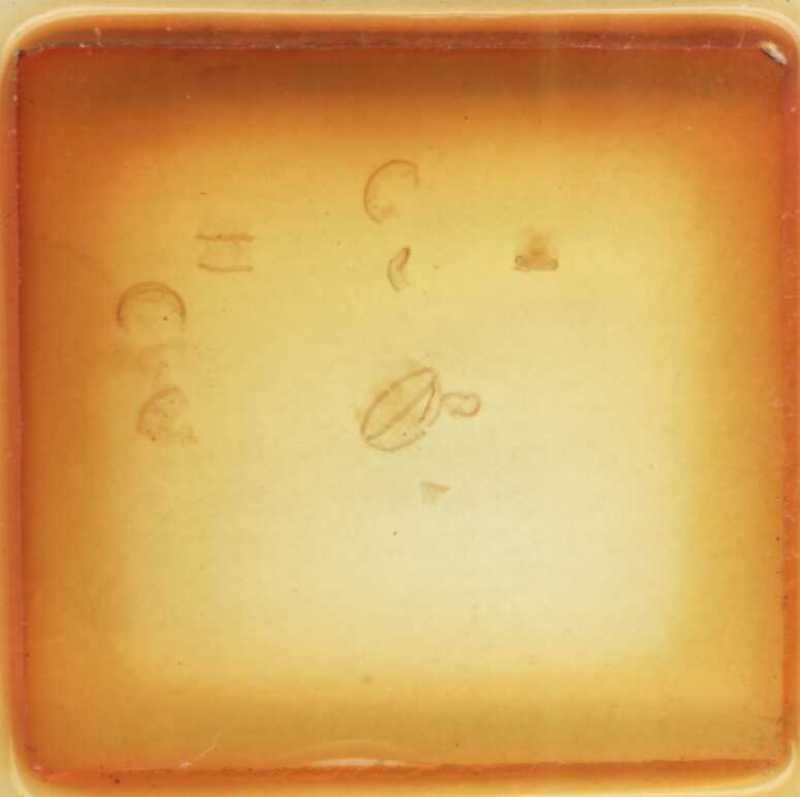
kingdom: Animalia
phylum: Arthropoda
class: Diplopoda
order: Glomerida
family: Glomeridae
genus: Trachysphaera
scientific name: Trachysphaera costata
